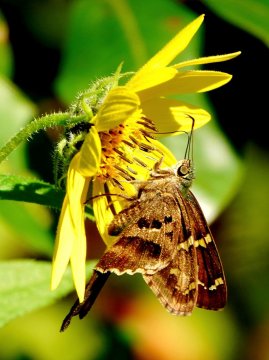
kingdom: Animalia
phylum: Arthropoda
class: Insecta
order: Lepidoptera
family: Hesperiidae
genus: Urbanus
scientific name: Urbanus proteus
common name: Long-tailed Skipper
